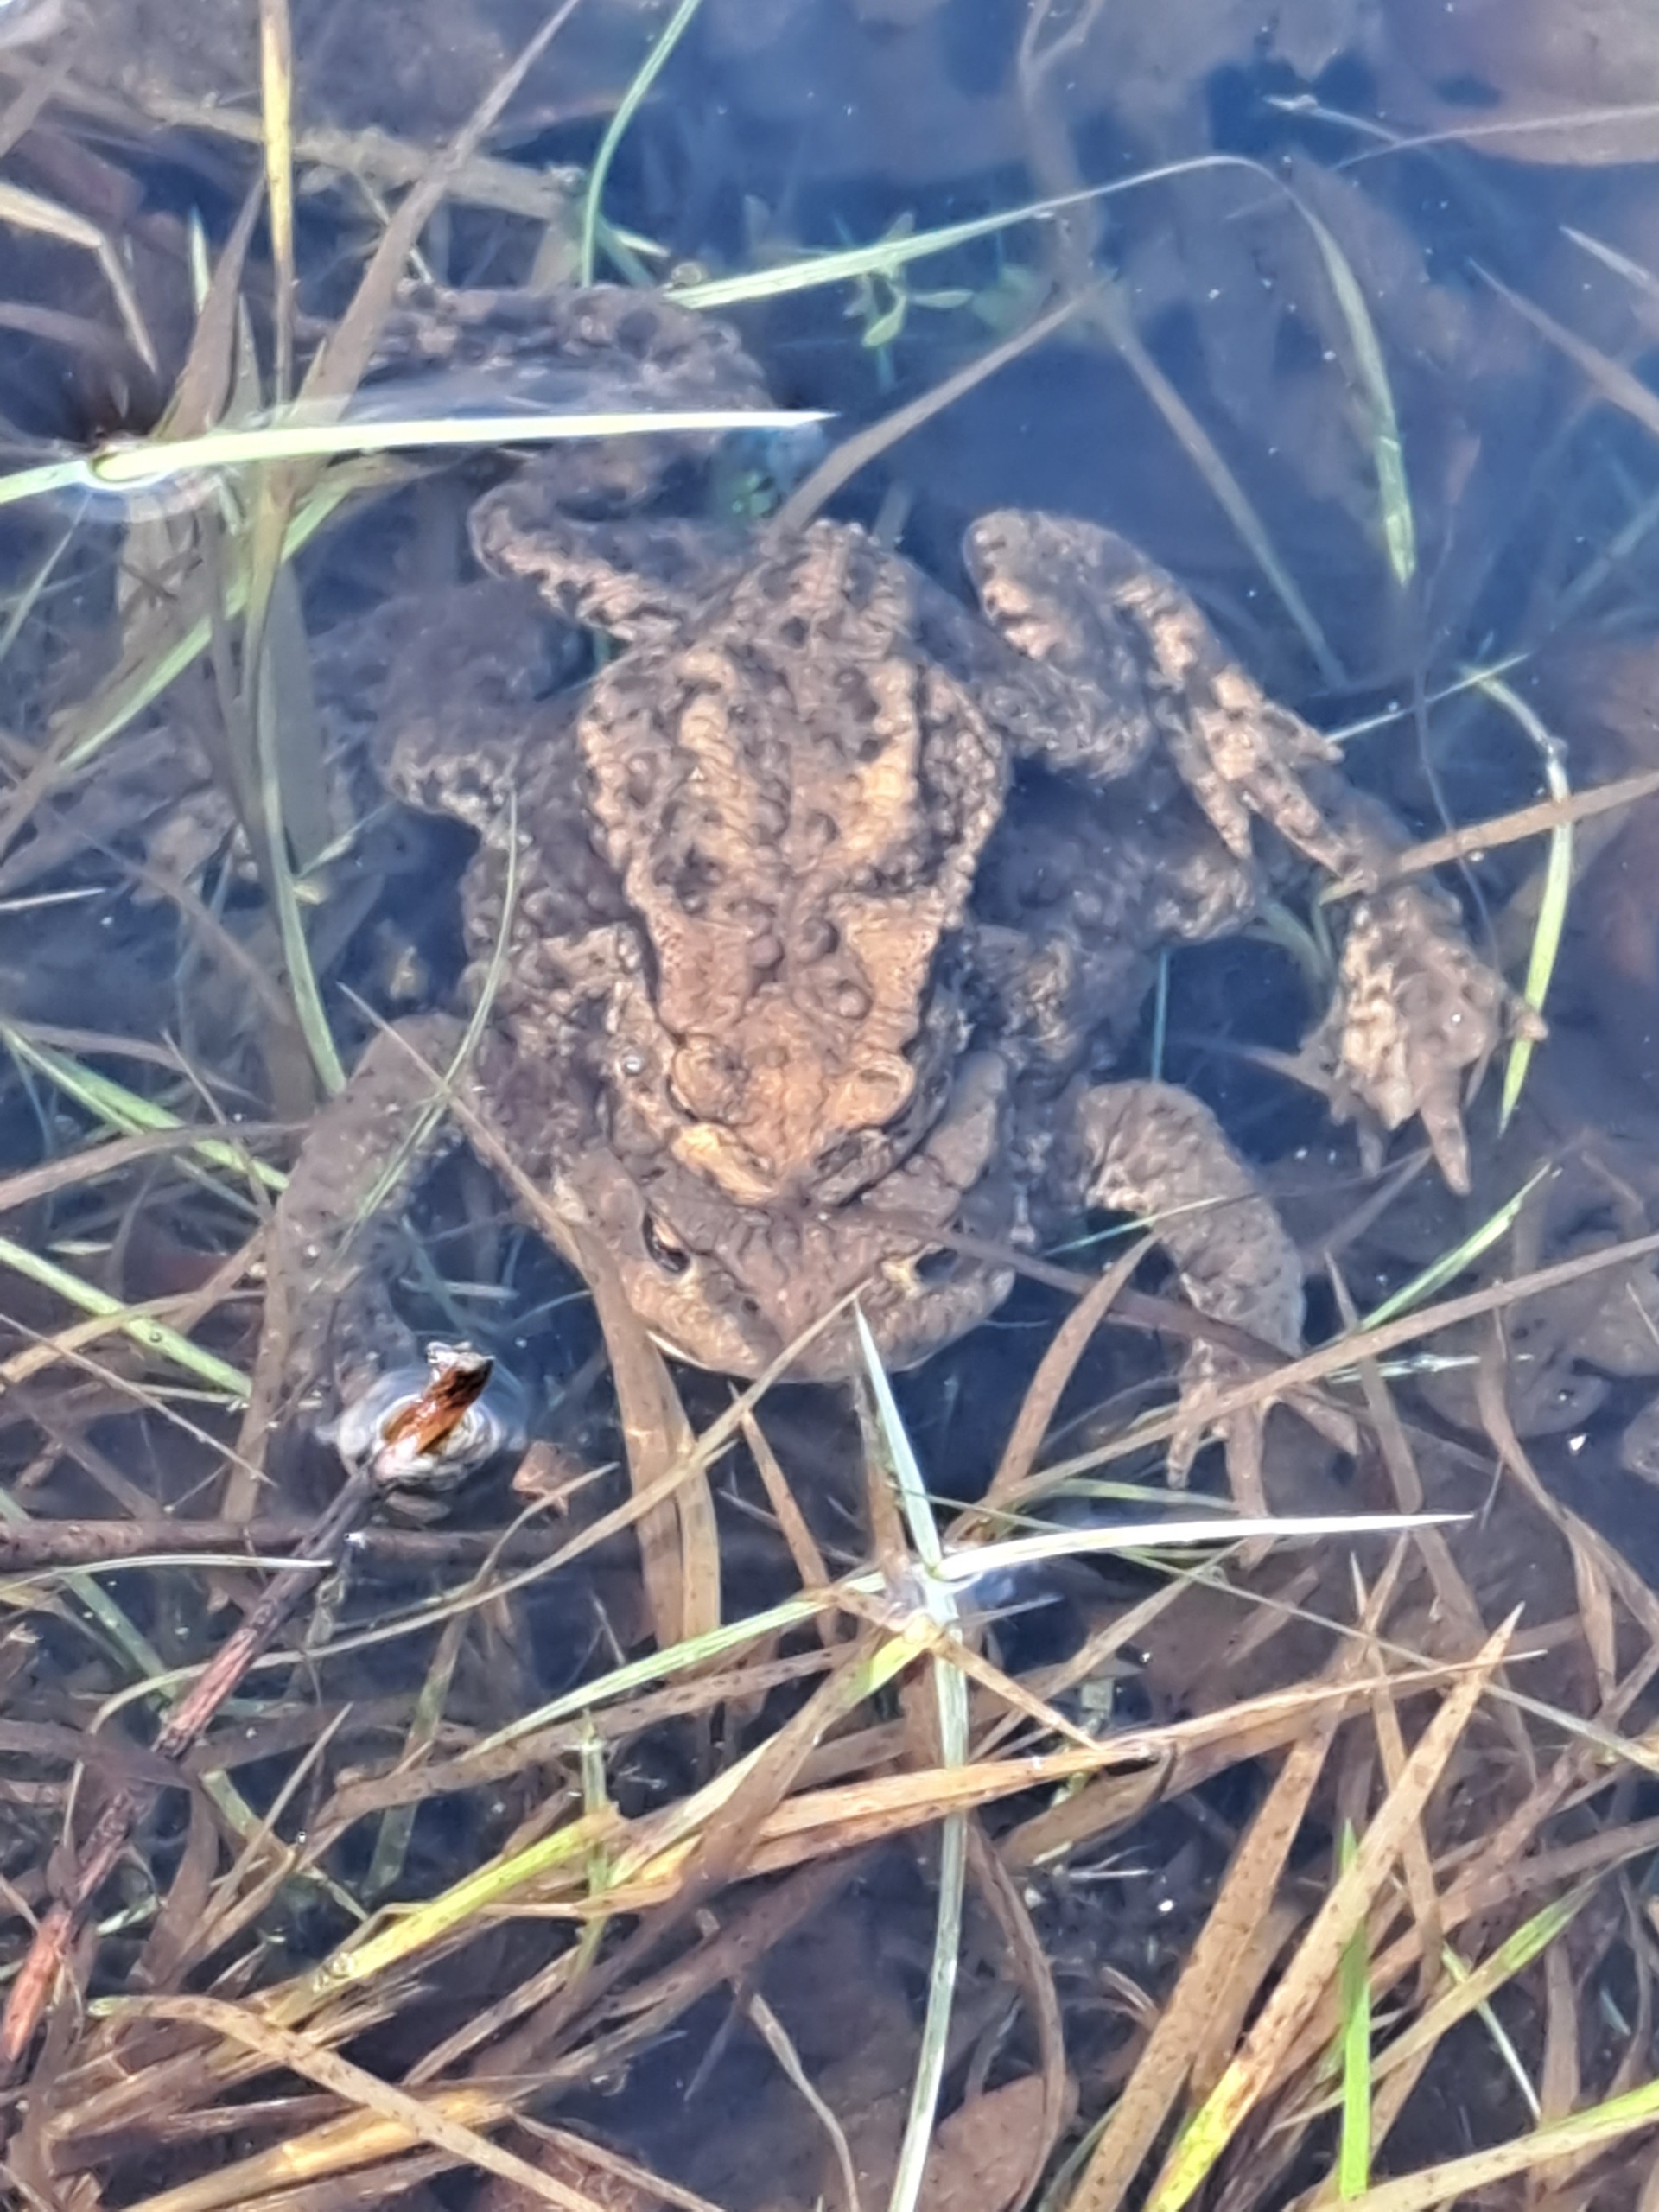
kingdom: Animalia
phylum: Chordata
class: Amphibia
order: Anura
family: Bufonidae
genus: Bufo
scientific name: Bufo bufo
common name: Skrubtudse
